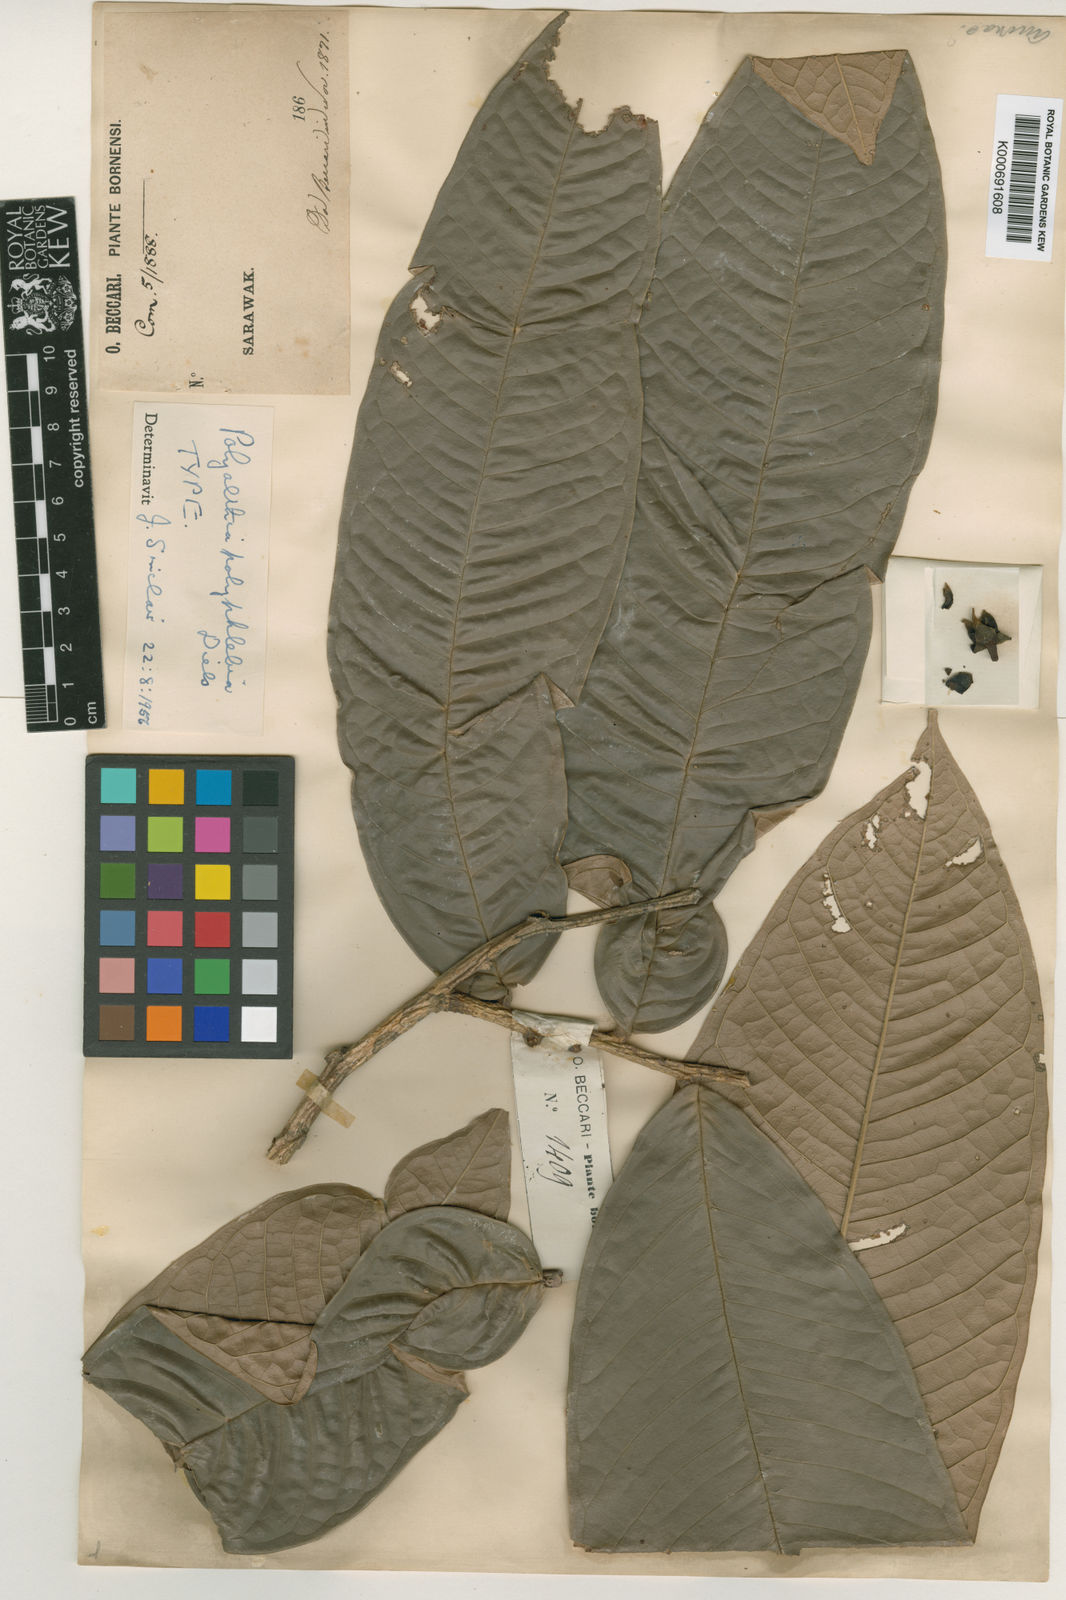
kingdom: Plantae
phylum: Tracheophyta
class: Magnoliopsida
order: Magnoliales
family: Annonaceae
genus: Polyalthia
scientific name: Polyalthia polyphlebia
